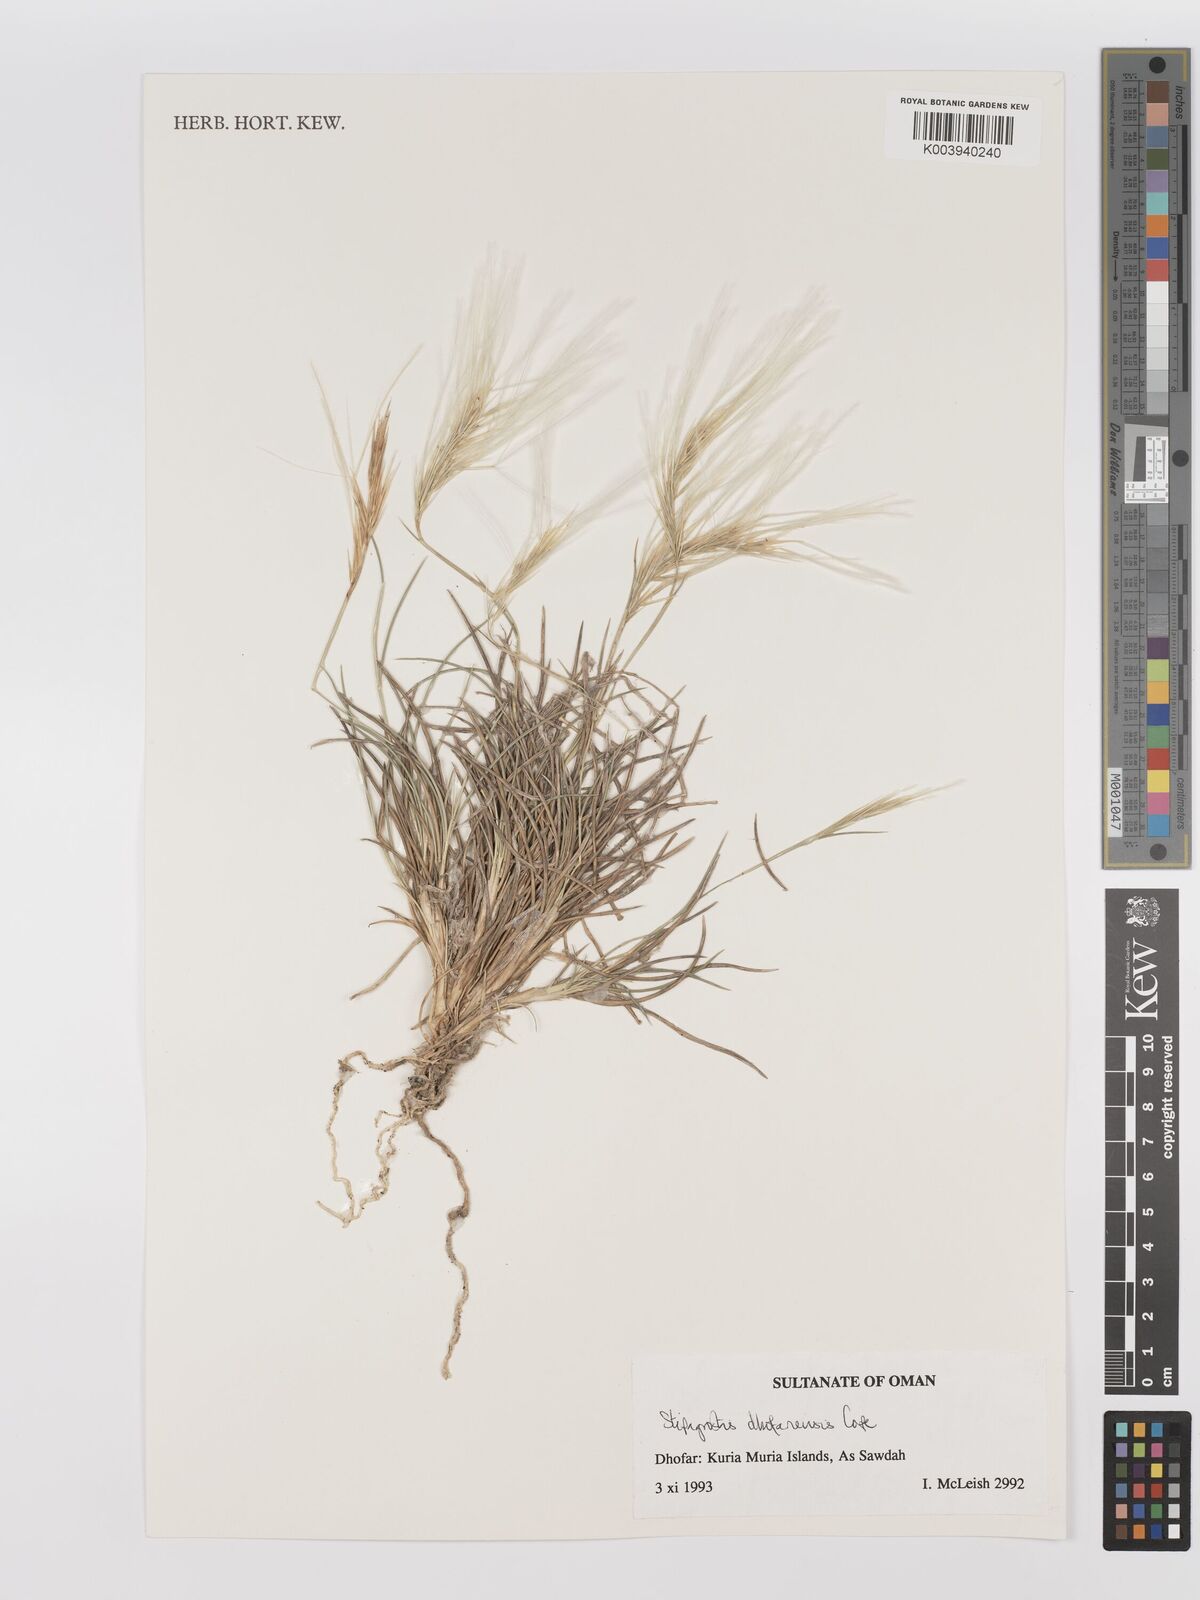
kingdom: Plantae
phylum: Tracheophyta
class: Liliopsida
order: Poales
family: Poaceae
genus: Stipagrostis
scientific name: Stipagrostis dhofariensis
